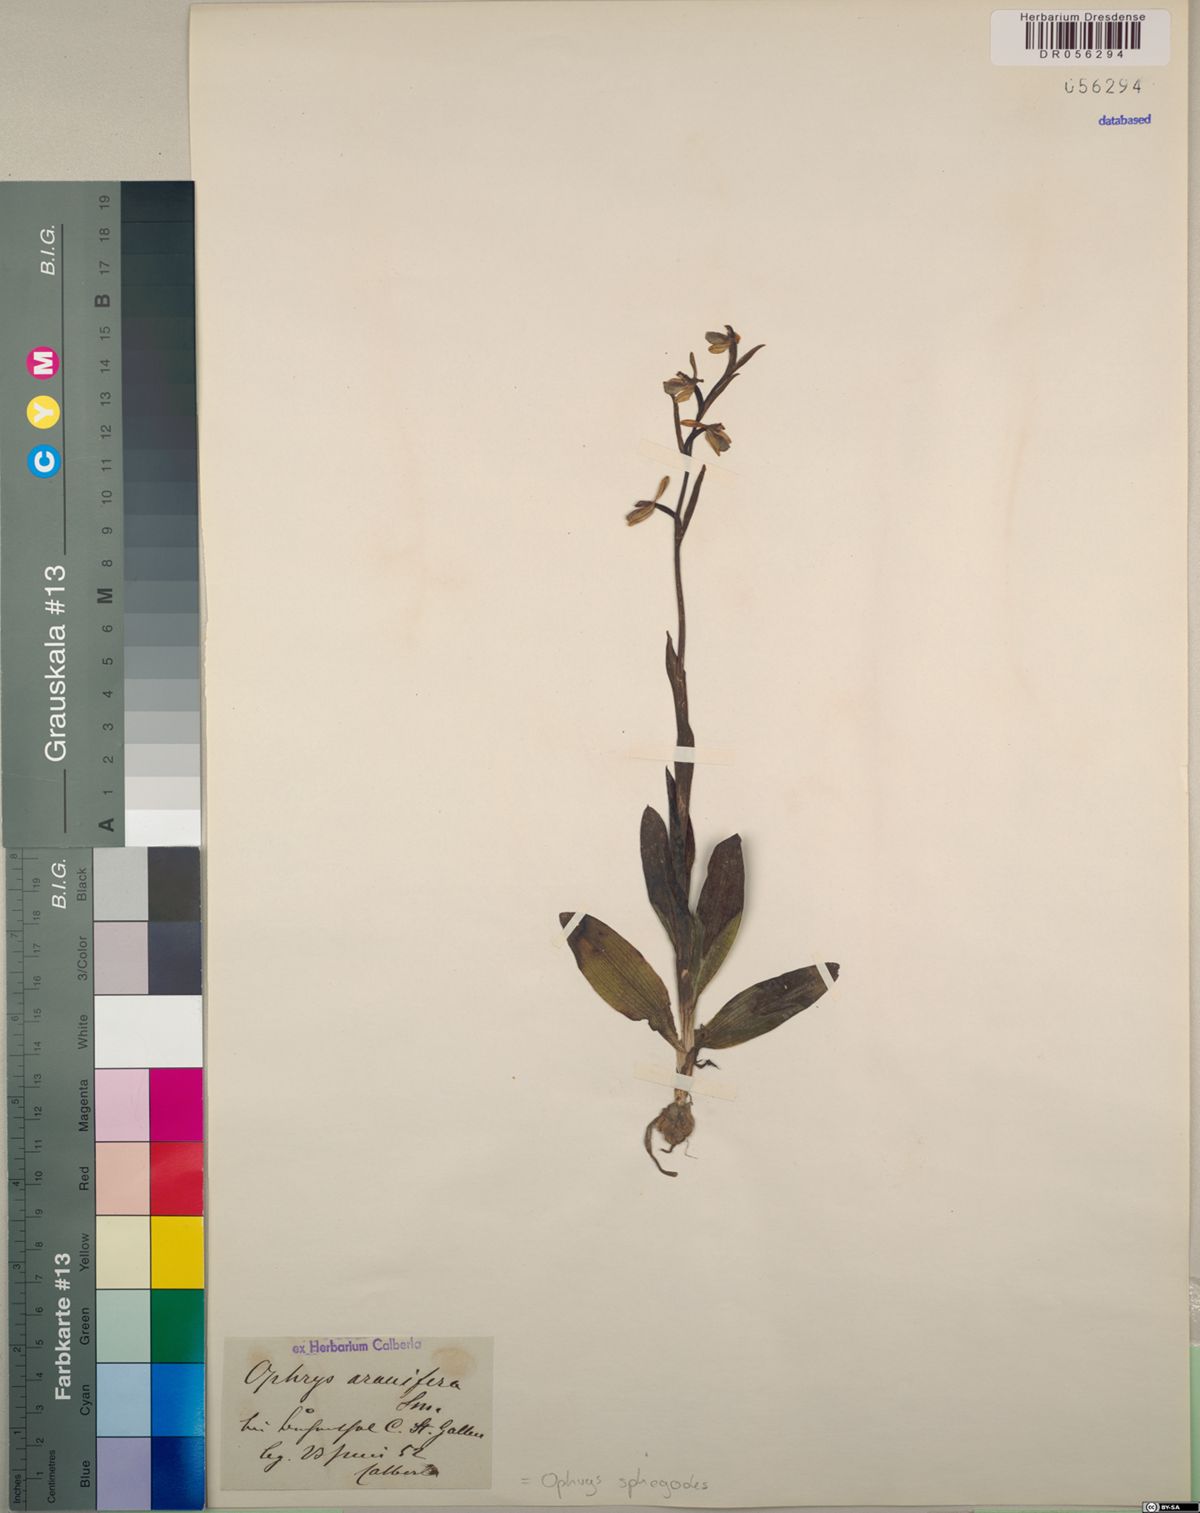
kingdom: Plantae
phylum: Tracheophyta
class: Liliopsida
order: Asparagales
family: Orchidaceae
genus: Ophrys
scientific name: Ophrys sphegodes
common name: Early spider-orchid
